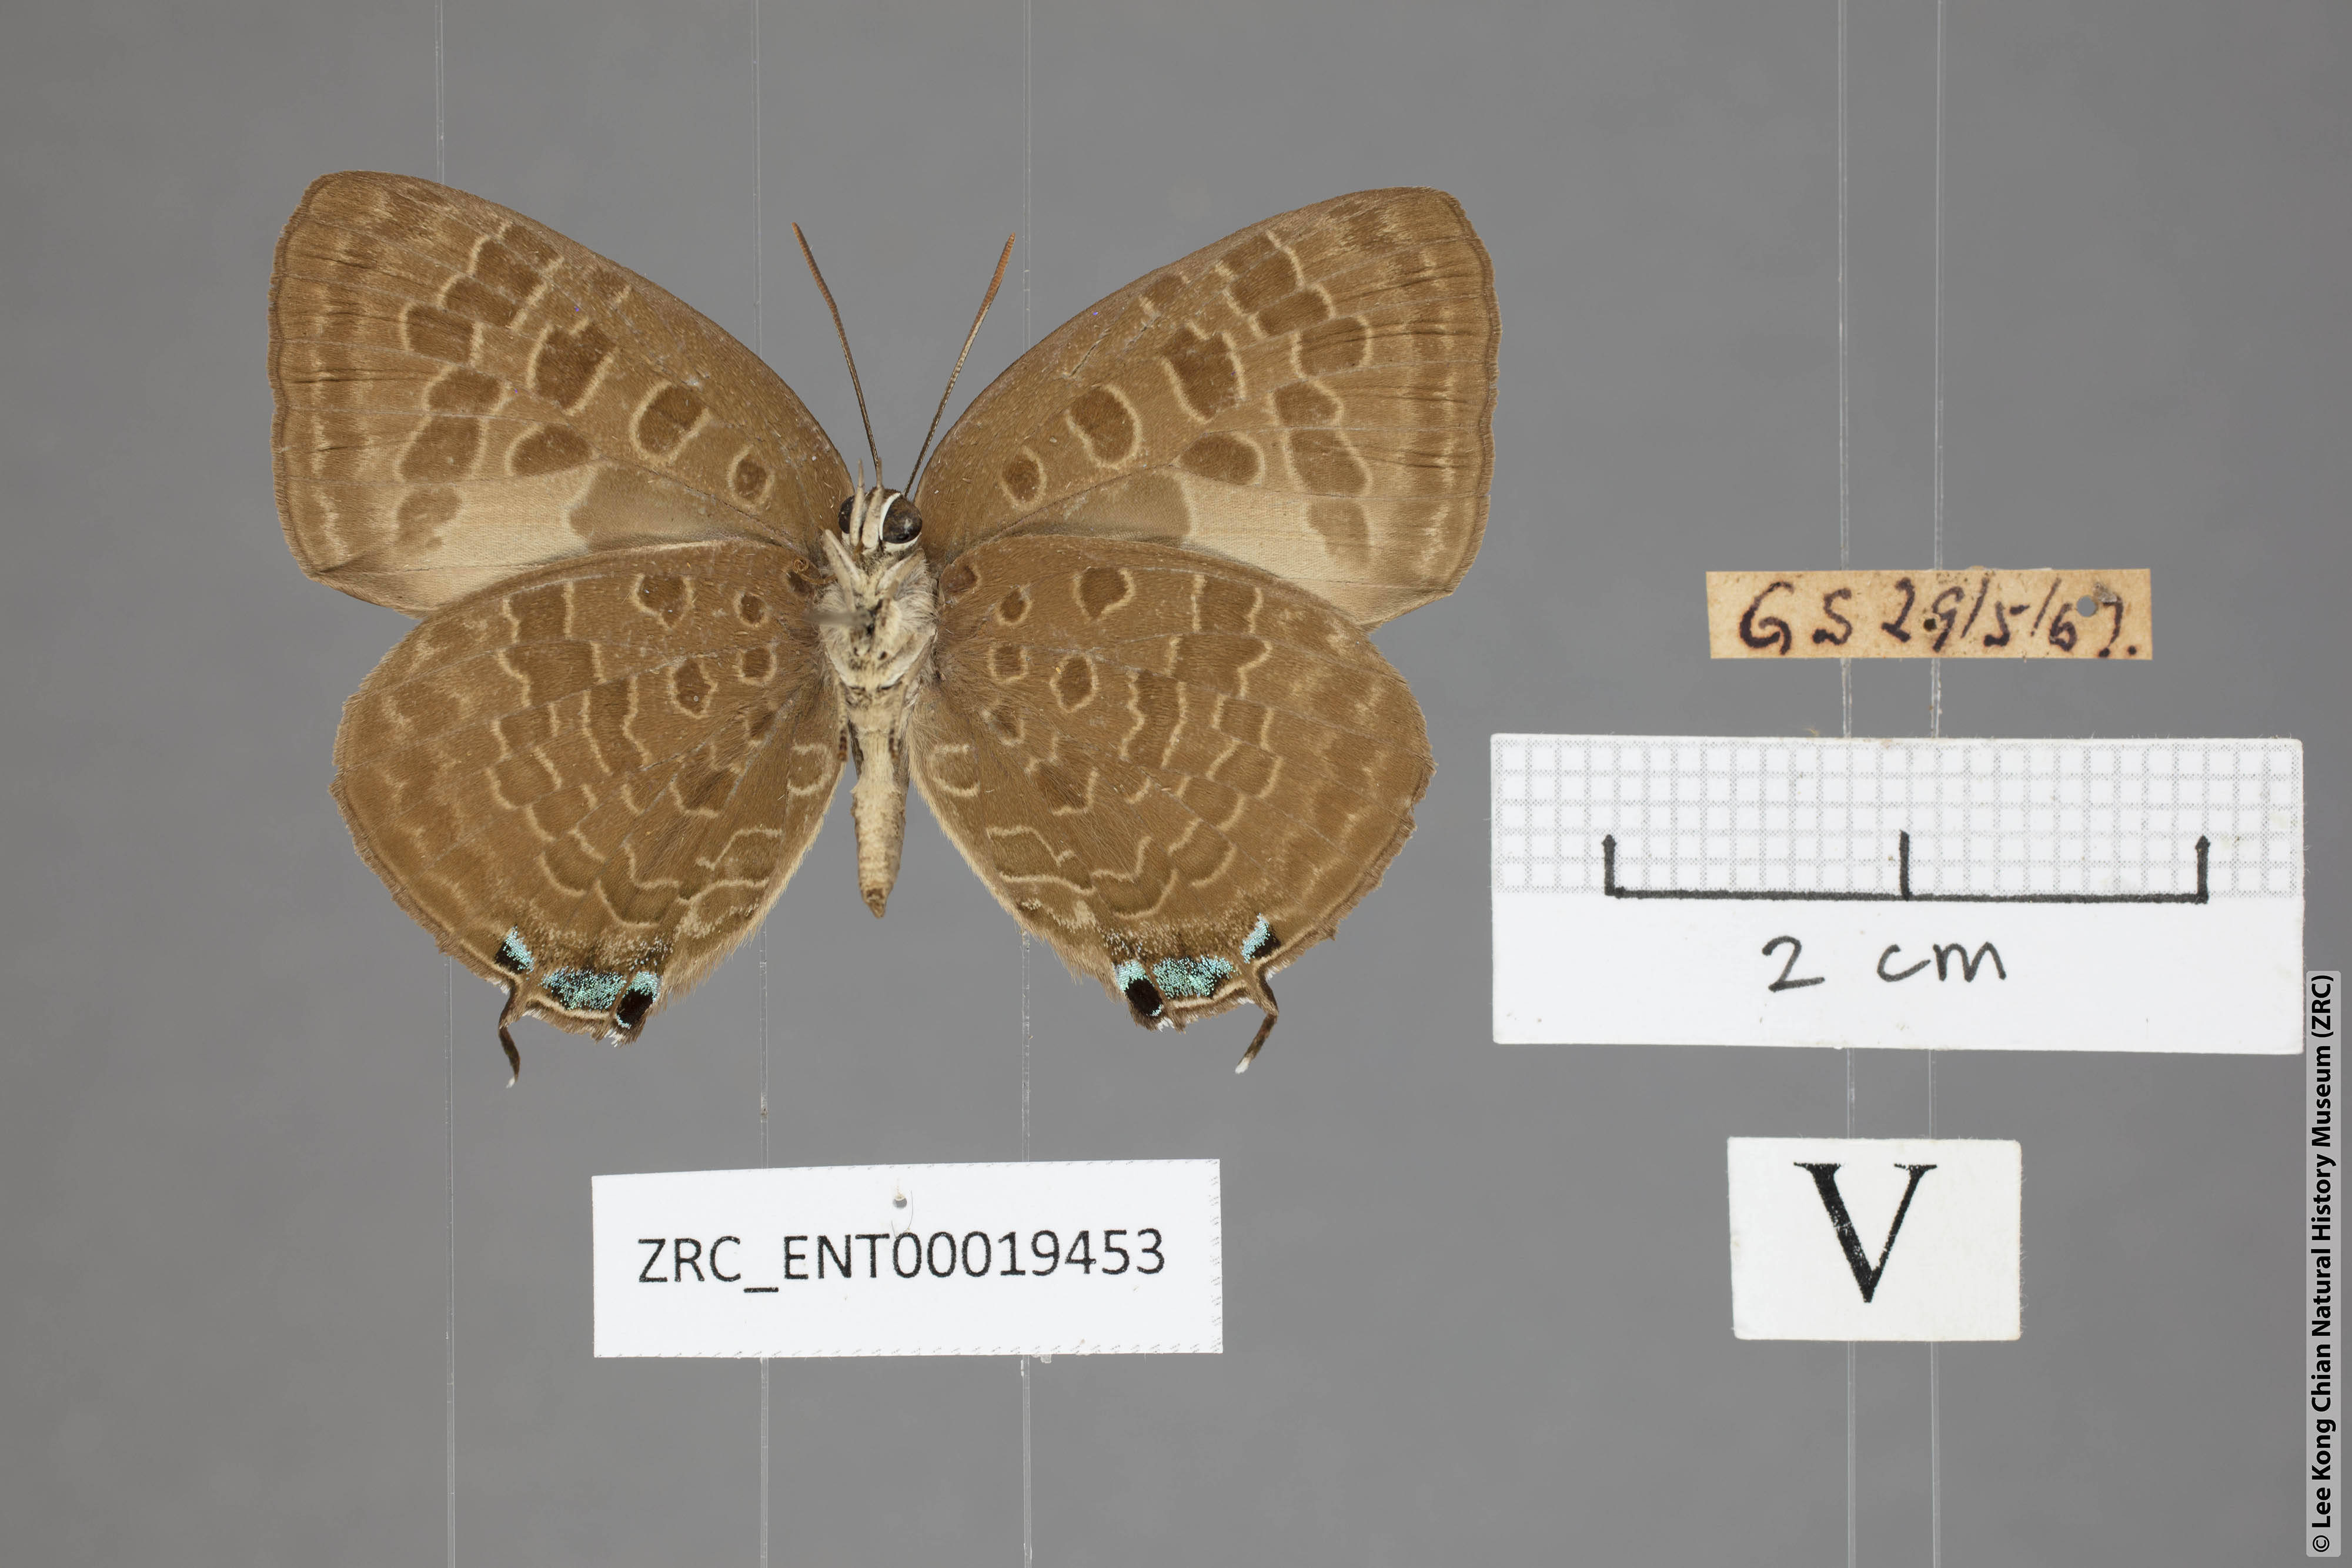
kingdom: Animalia
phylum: Arthropoda
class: Insecta
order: Lepidoptera
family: Lycaenidae
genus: Arhopala
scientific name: Arhopala eumolphus
